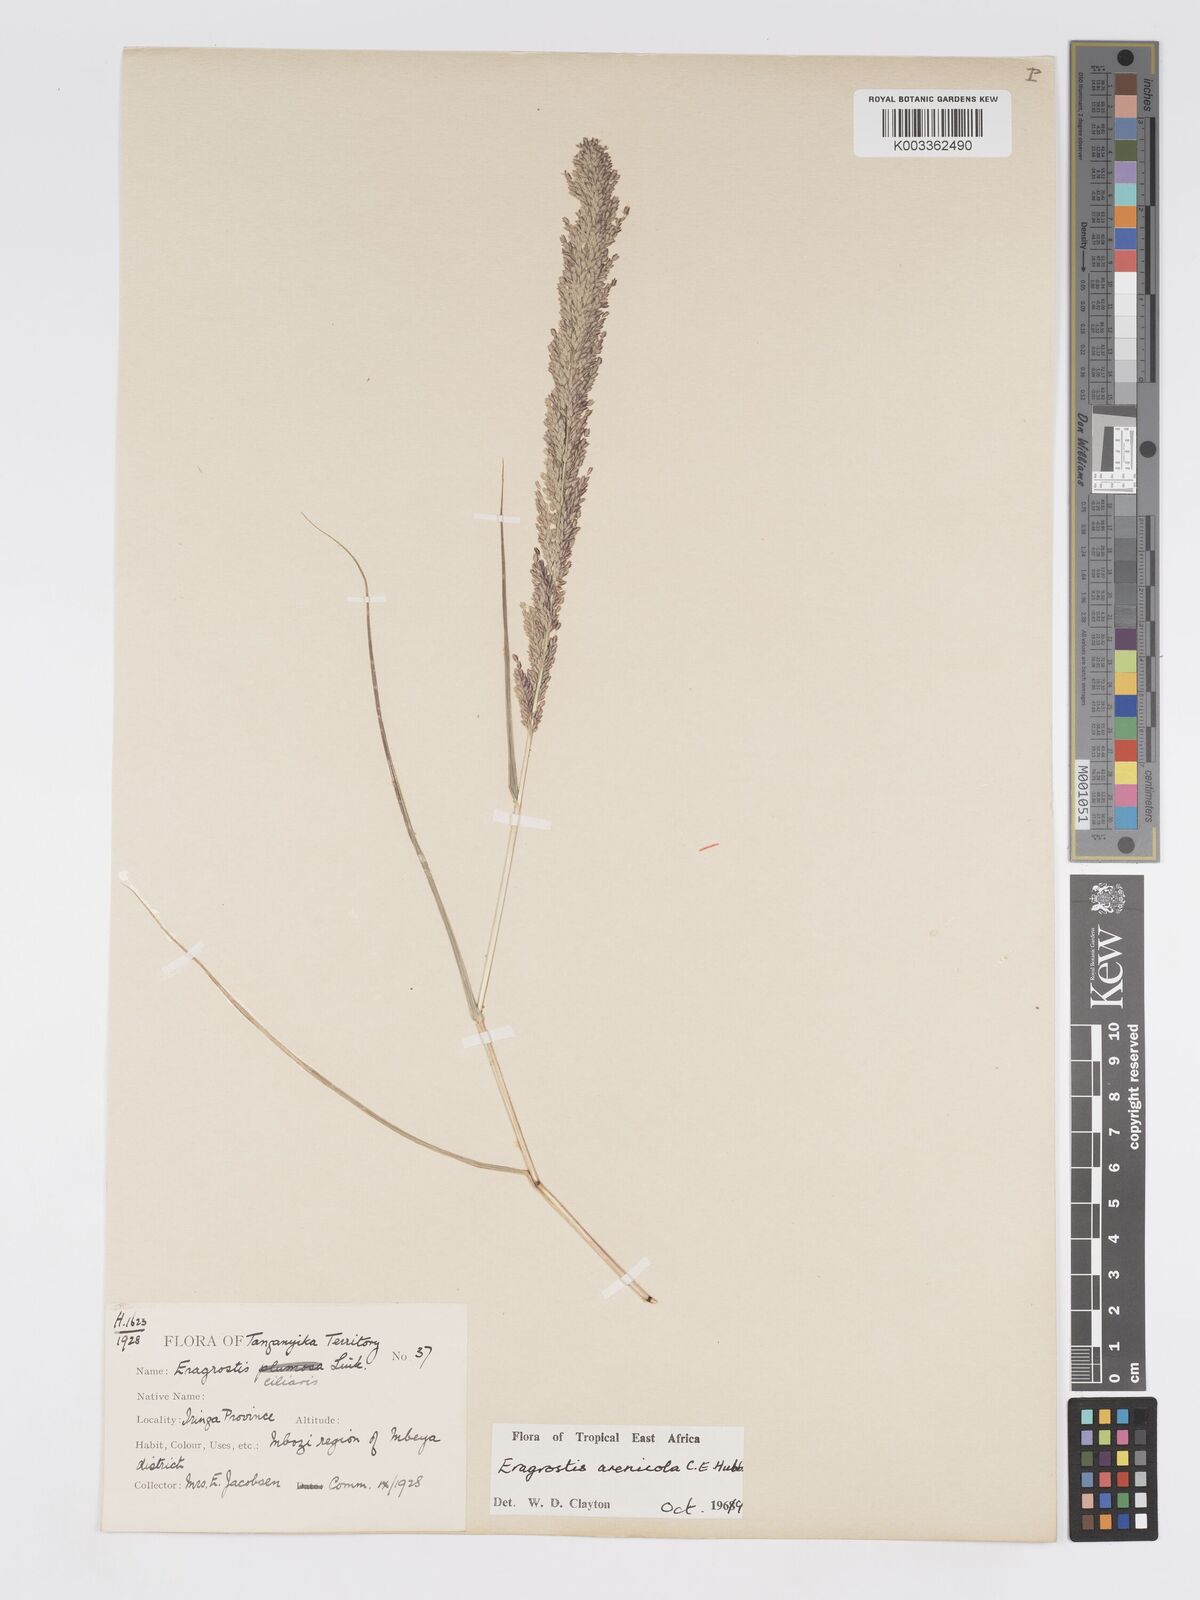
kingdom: Plantae
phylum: Tracheophyta
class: Liliopsida
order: Poales
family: Poaceae
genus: Eragrostis
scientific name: Eragrostis arenicola
